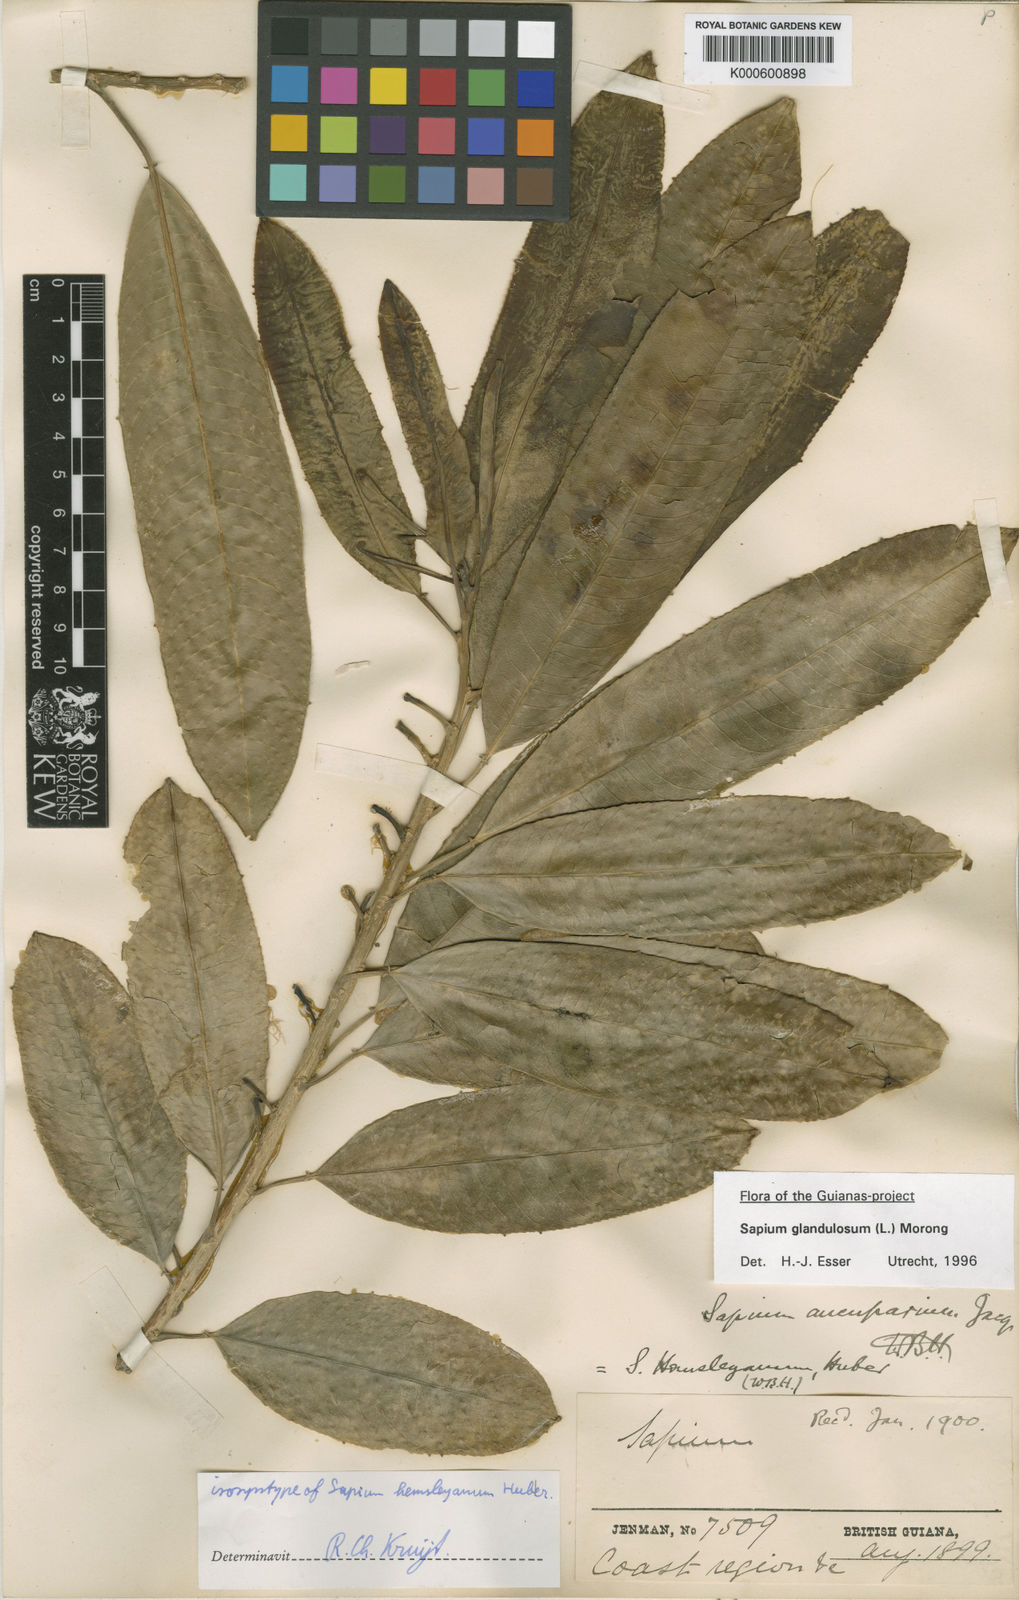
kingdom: Plantae
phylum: Tracheophyta
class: Magnoliopsida
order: Malpighiales
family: Euphorbiaceae
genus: Sapium
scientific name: Sapium glandulosum
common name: Milktree
